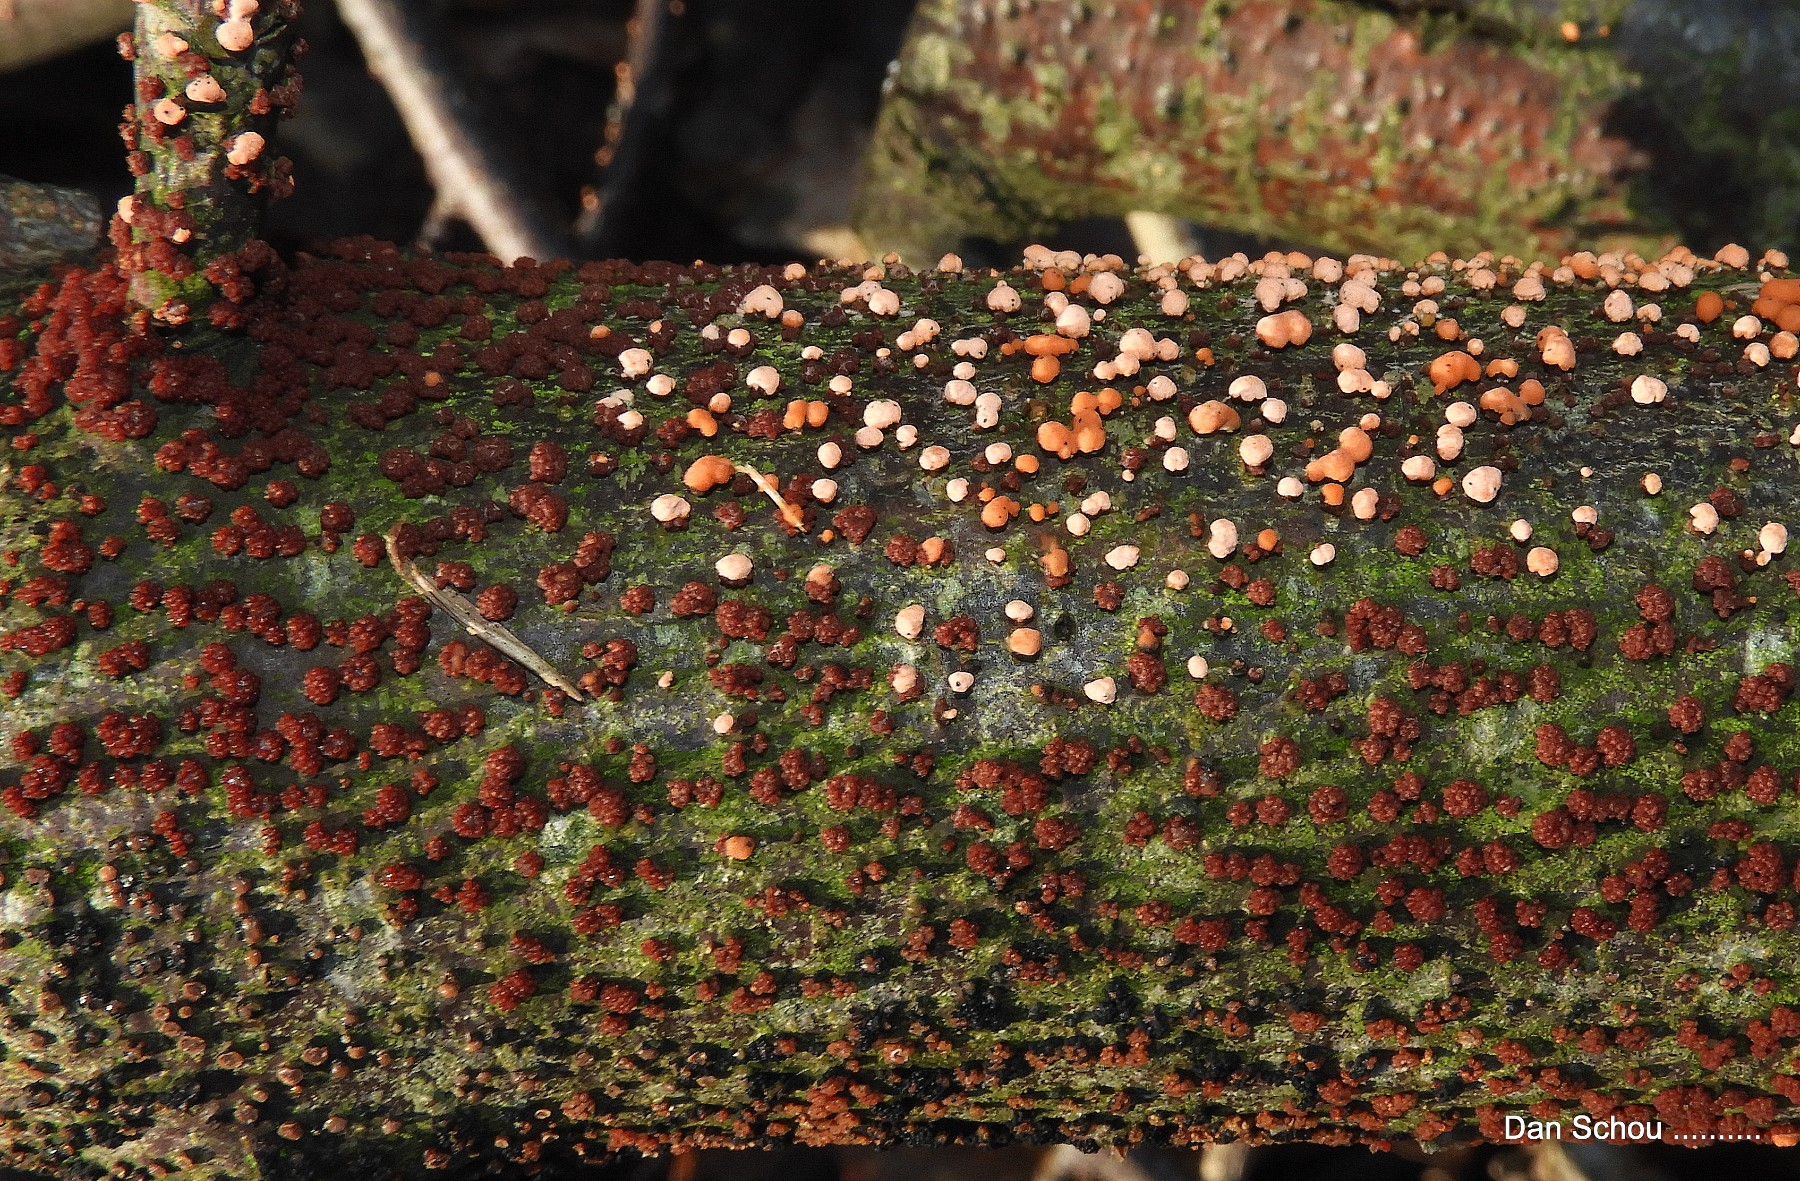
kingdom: Fungi
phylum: Ascomycota
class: Sordariomycetes
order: Hypocreales
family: Nectriaceae
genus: Nectria
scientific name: Nectria cinnabarina
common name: almindelig cinnobersvamp
